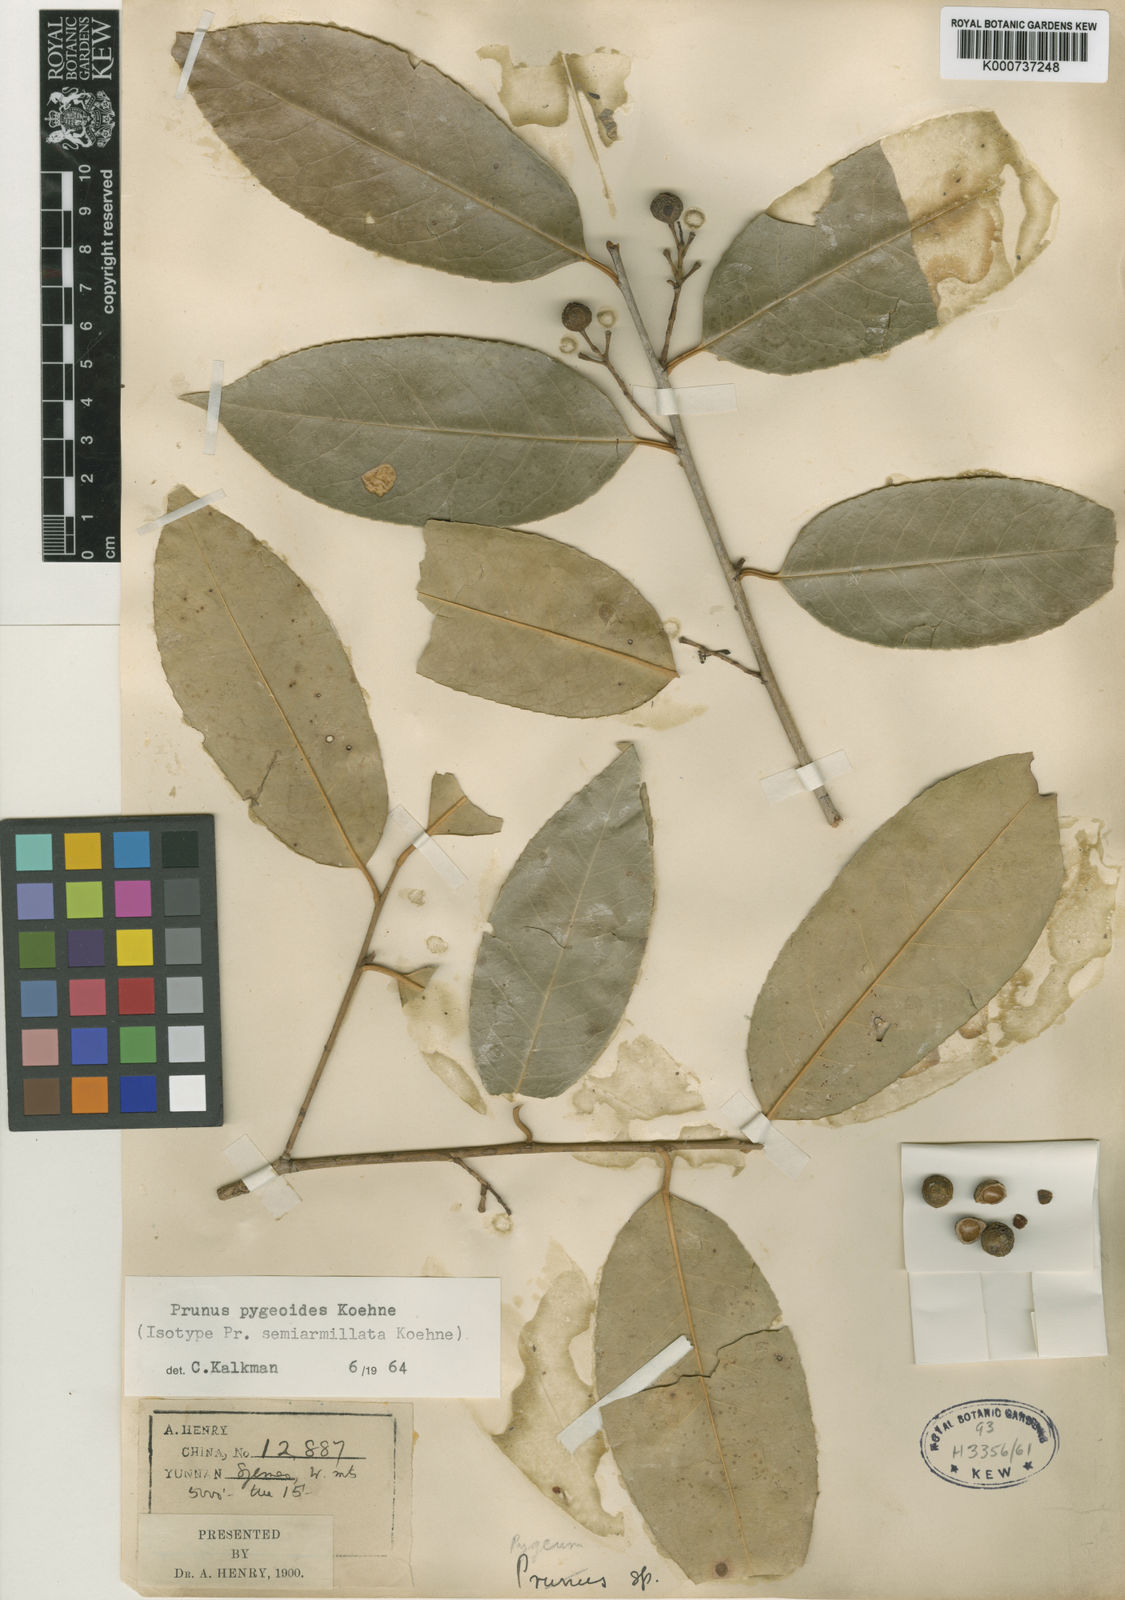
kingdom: Plantae
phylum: Tracheophyta
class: Magnoliopsida
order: Rosales
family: Rosaceae
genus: Prunus
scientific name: Prunus pygeoides
